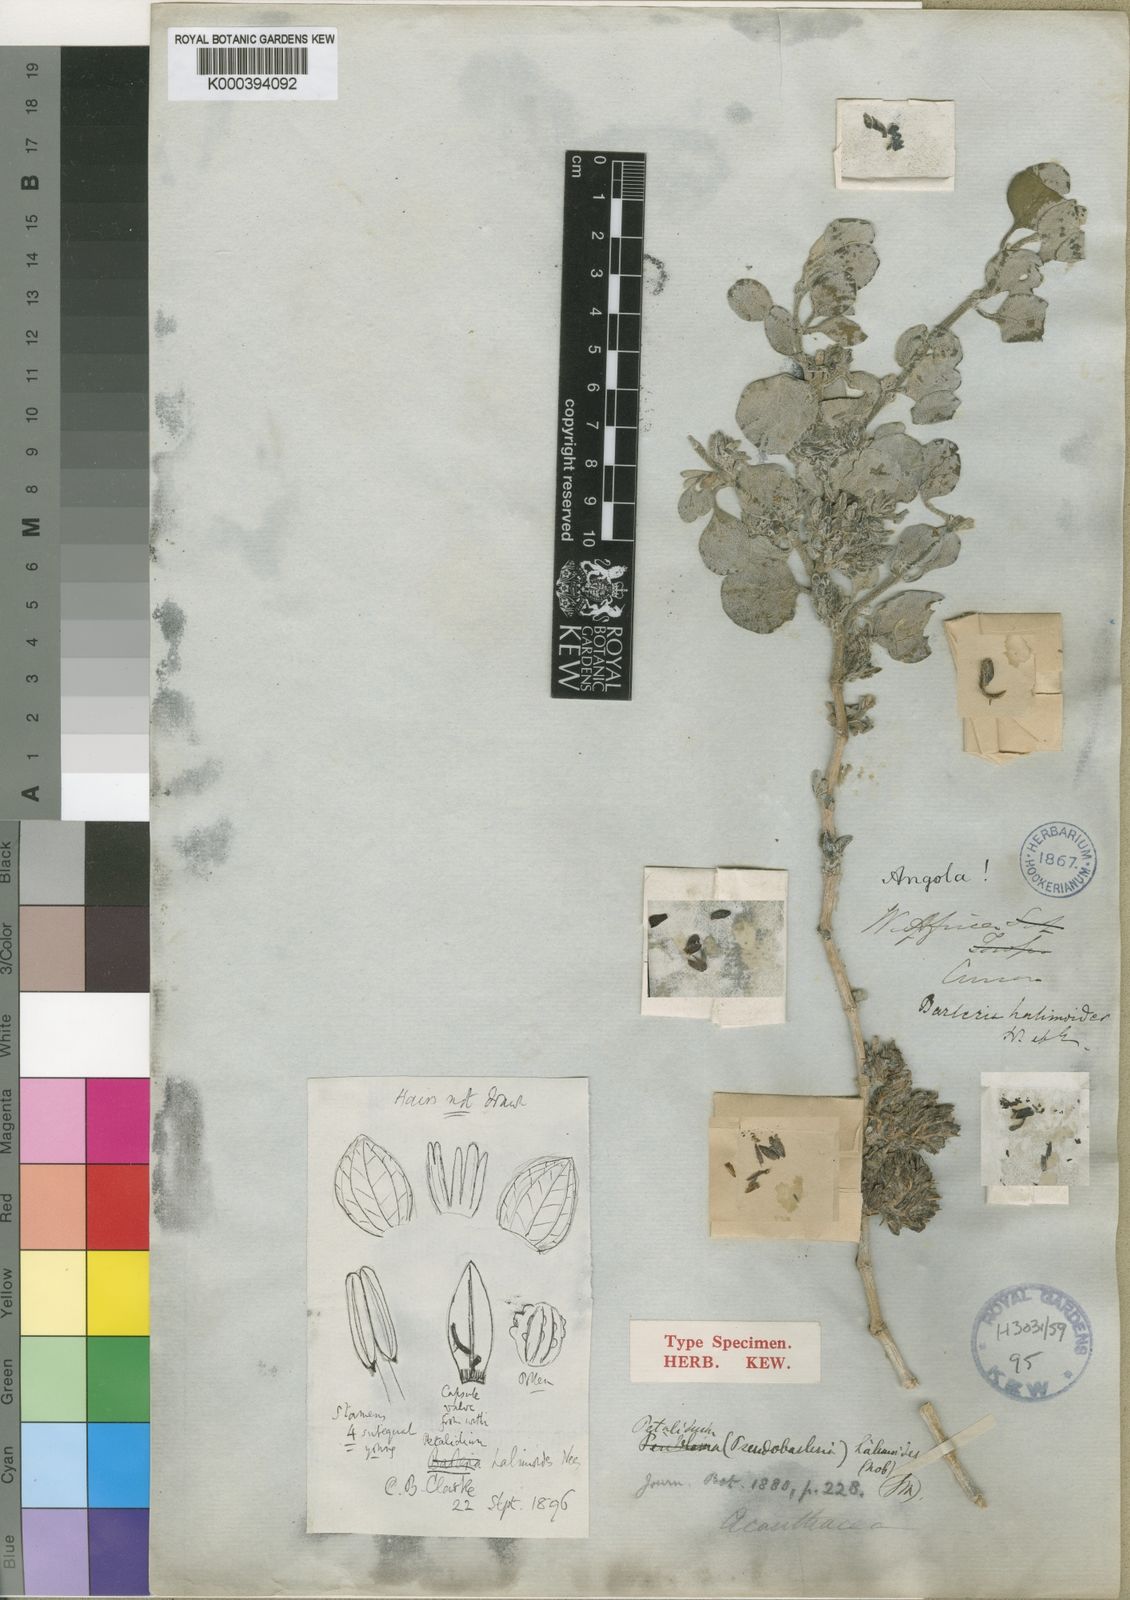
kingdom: Plantae
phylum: Tracheophyta
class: Magnoliopsida
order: Lamiales
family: Acanthaceae
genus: Petalidium
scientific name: Petalidium halimoides
